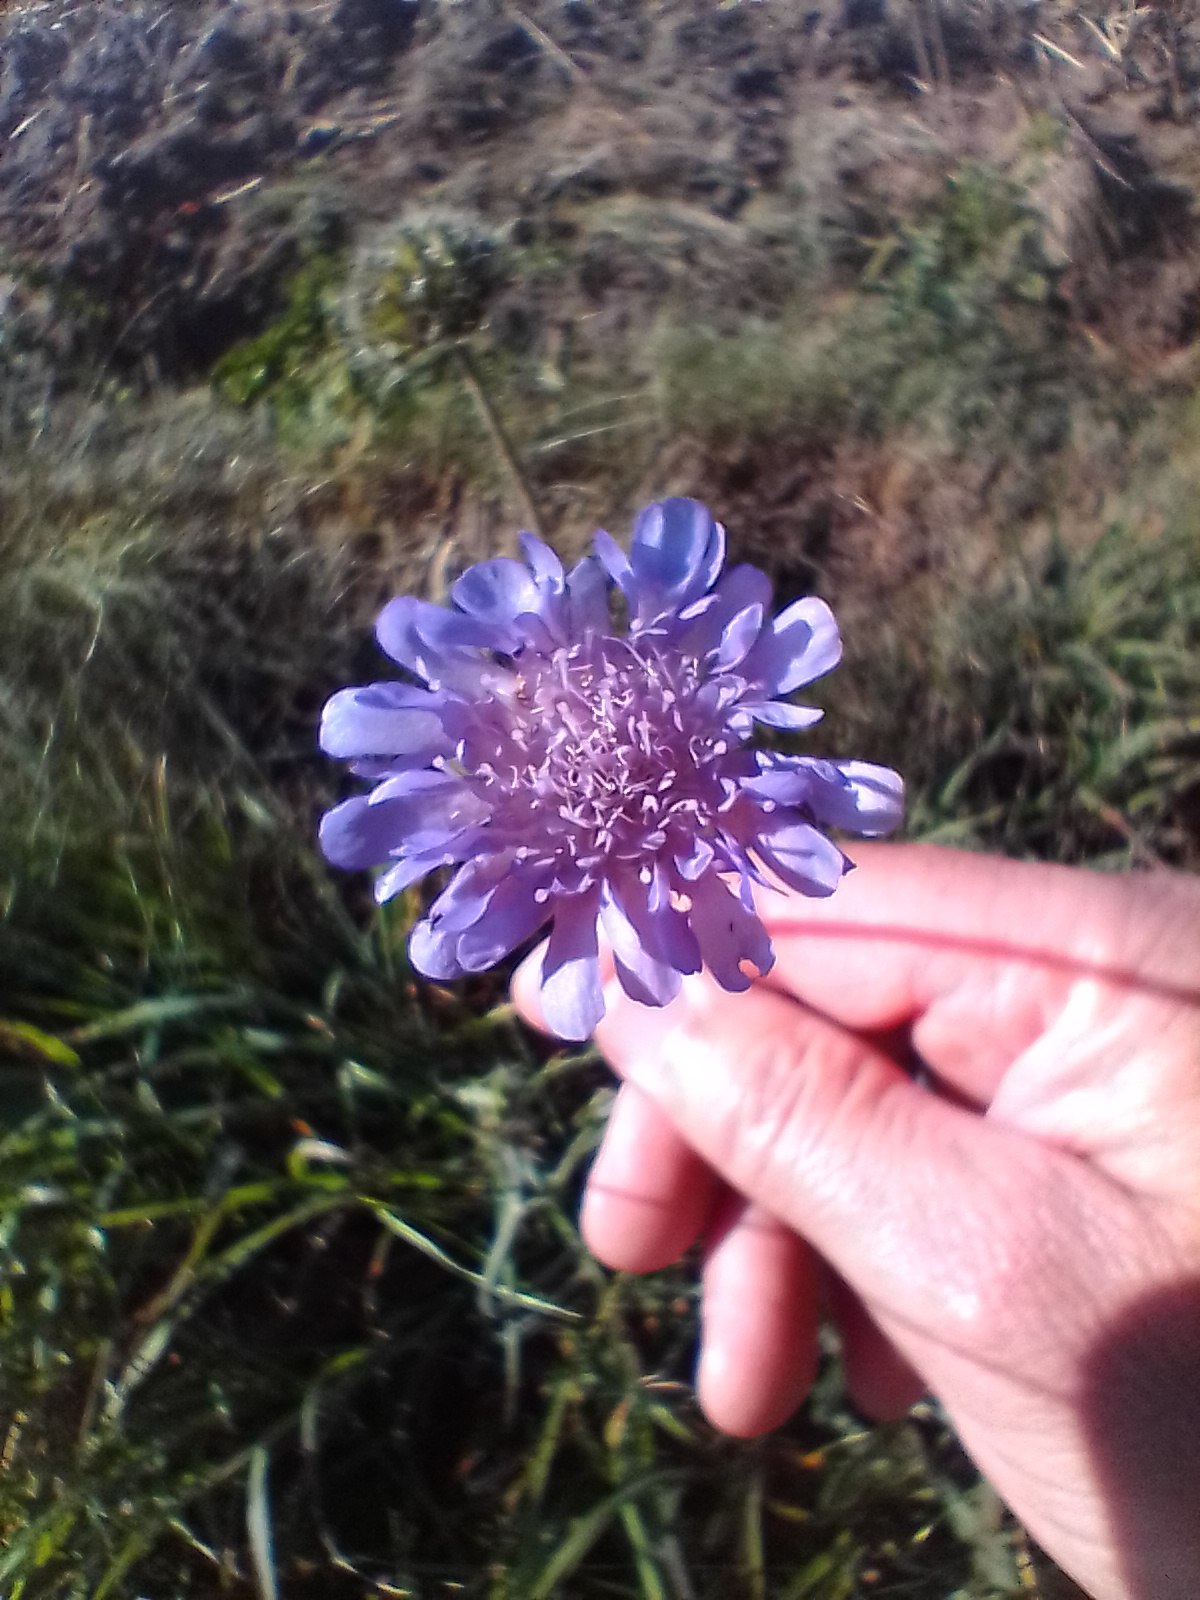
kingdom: Plantae
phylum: Tracheophyta
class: Magnoliopsida
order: Dipsacales
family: Caprifoliaceae
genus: Knautia
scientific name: Knautia arvensis
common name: Blåhat
